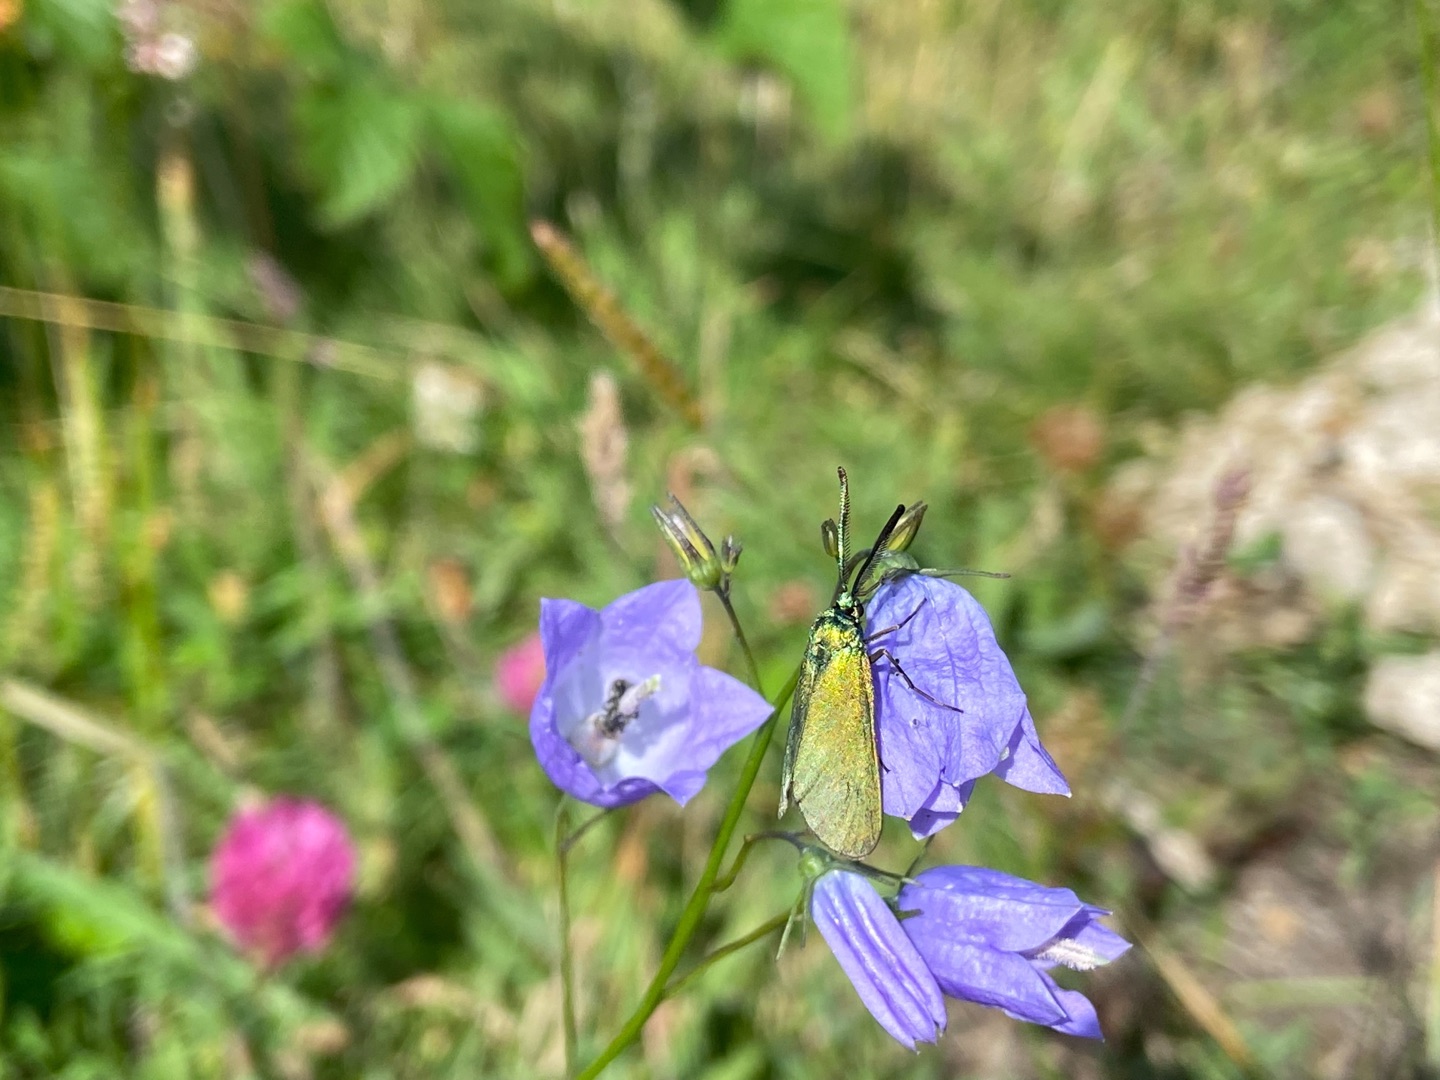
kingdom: Animalia
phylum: Arthropoda
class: Insecta
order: Lepidoptera
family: Zygaenidae
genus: Adscita
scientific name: Adscita statices
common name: Metalvinge
